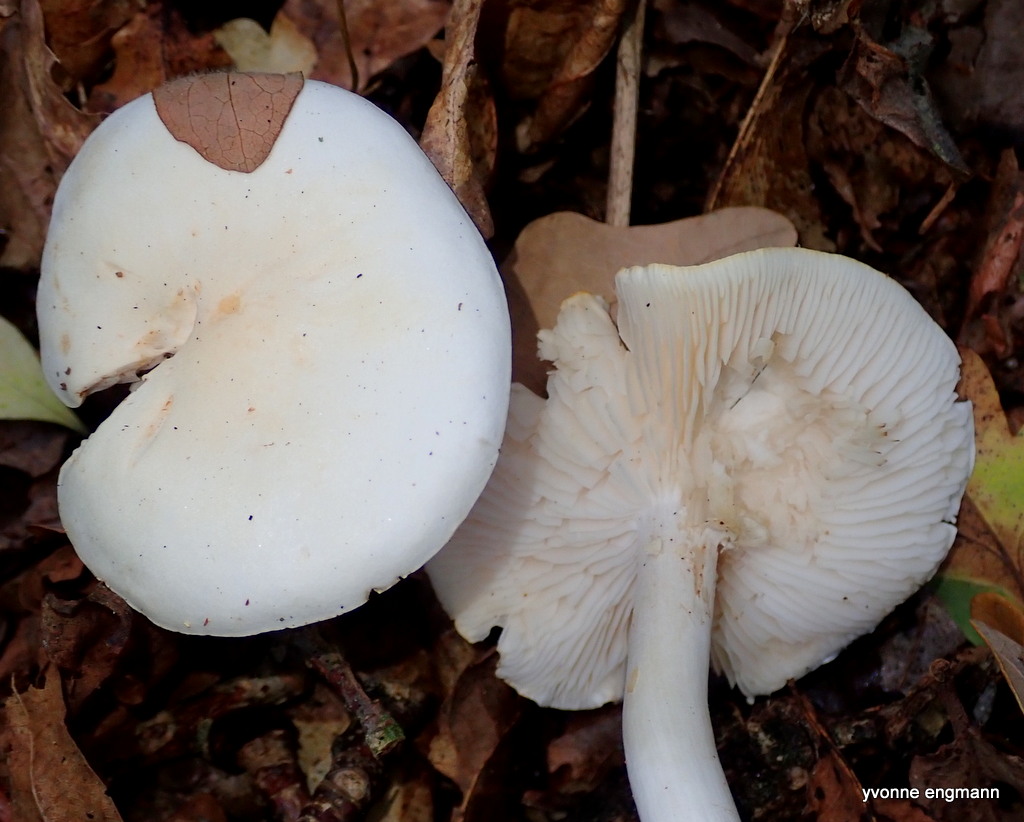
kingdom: Fungi
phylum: Basidiomycota
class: Agaricomycetes
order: Agaricales
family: Tricholomataceae
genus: Tricholoma
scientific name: Tricholoma album
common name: honning-ridderhat
